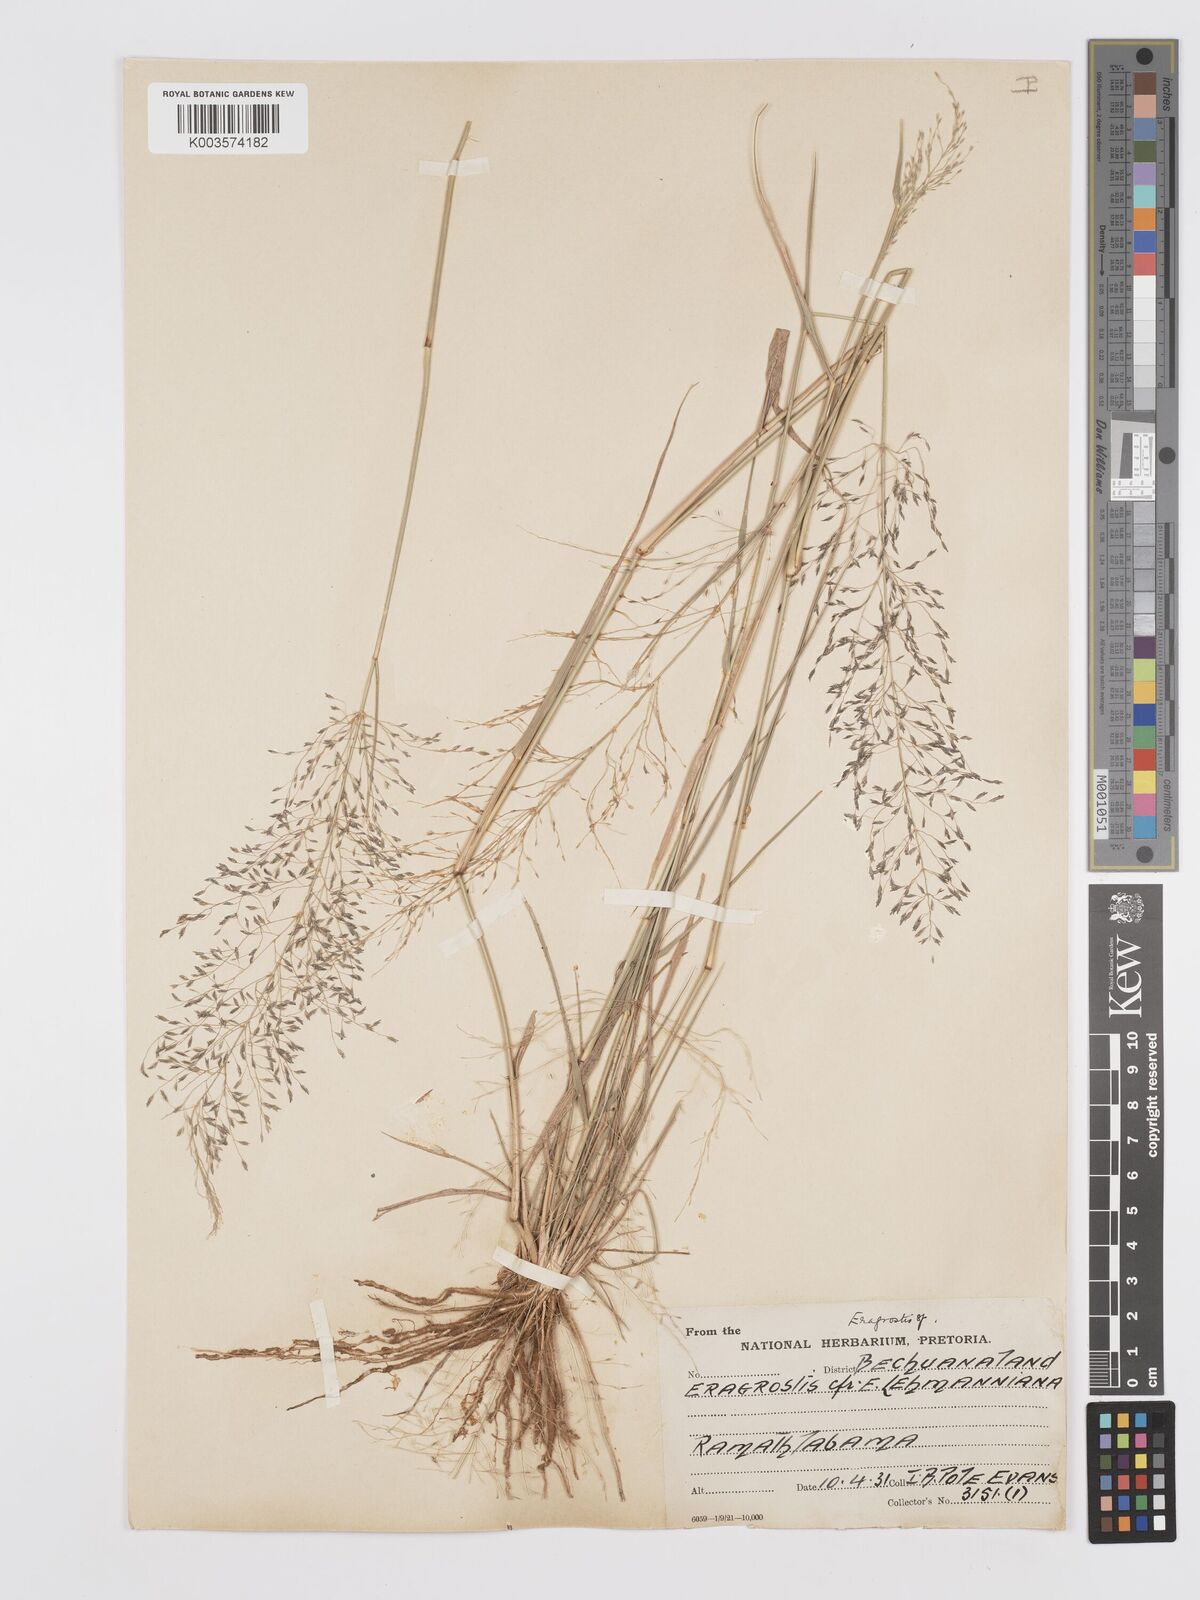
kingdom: Plantae
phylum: Tracheophyta
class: Liliopsida
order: Poales
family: Poaceae
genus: Eragrostis
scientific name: Eragrostis cylindriflora
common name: Cylinderflower lovegrass
